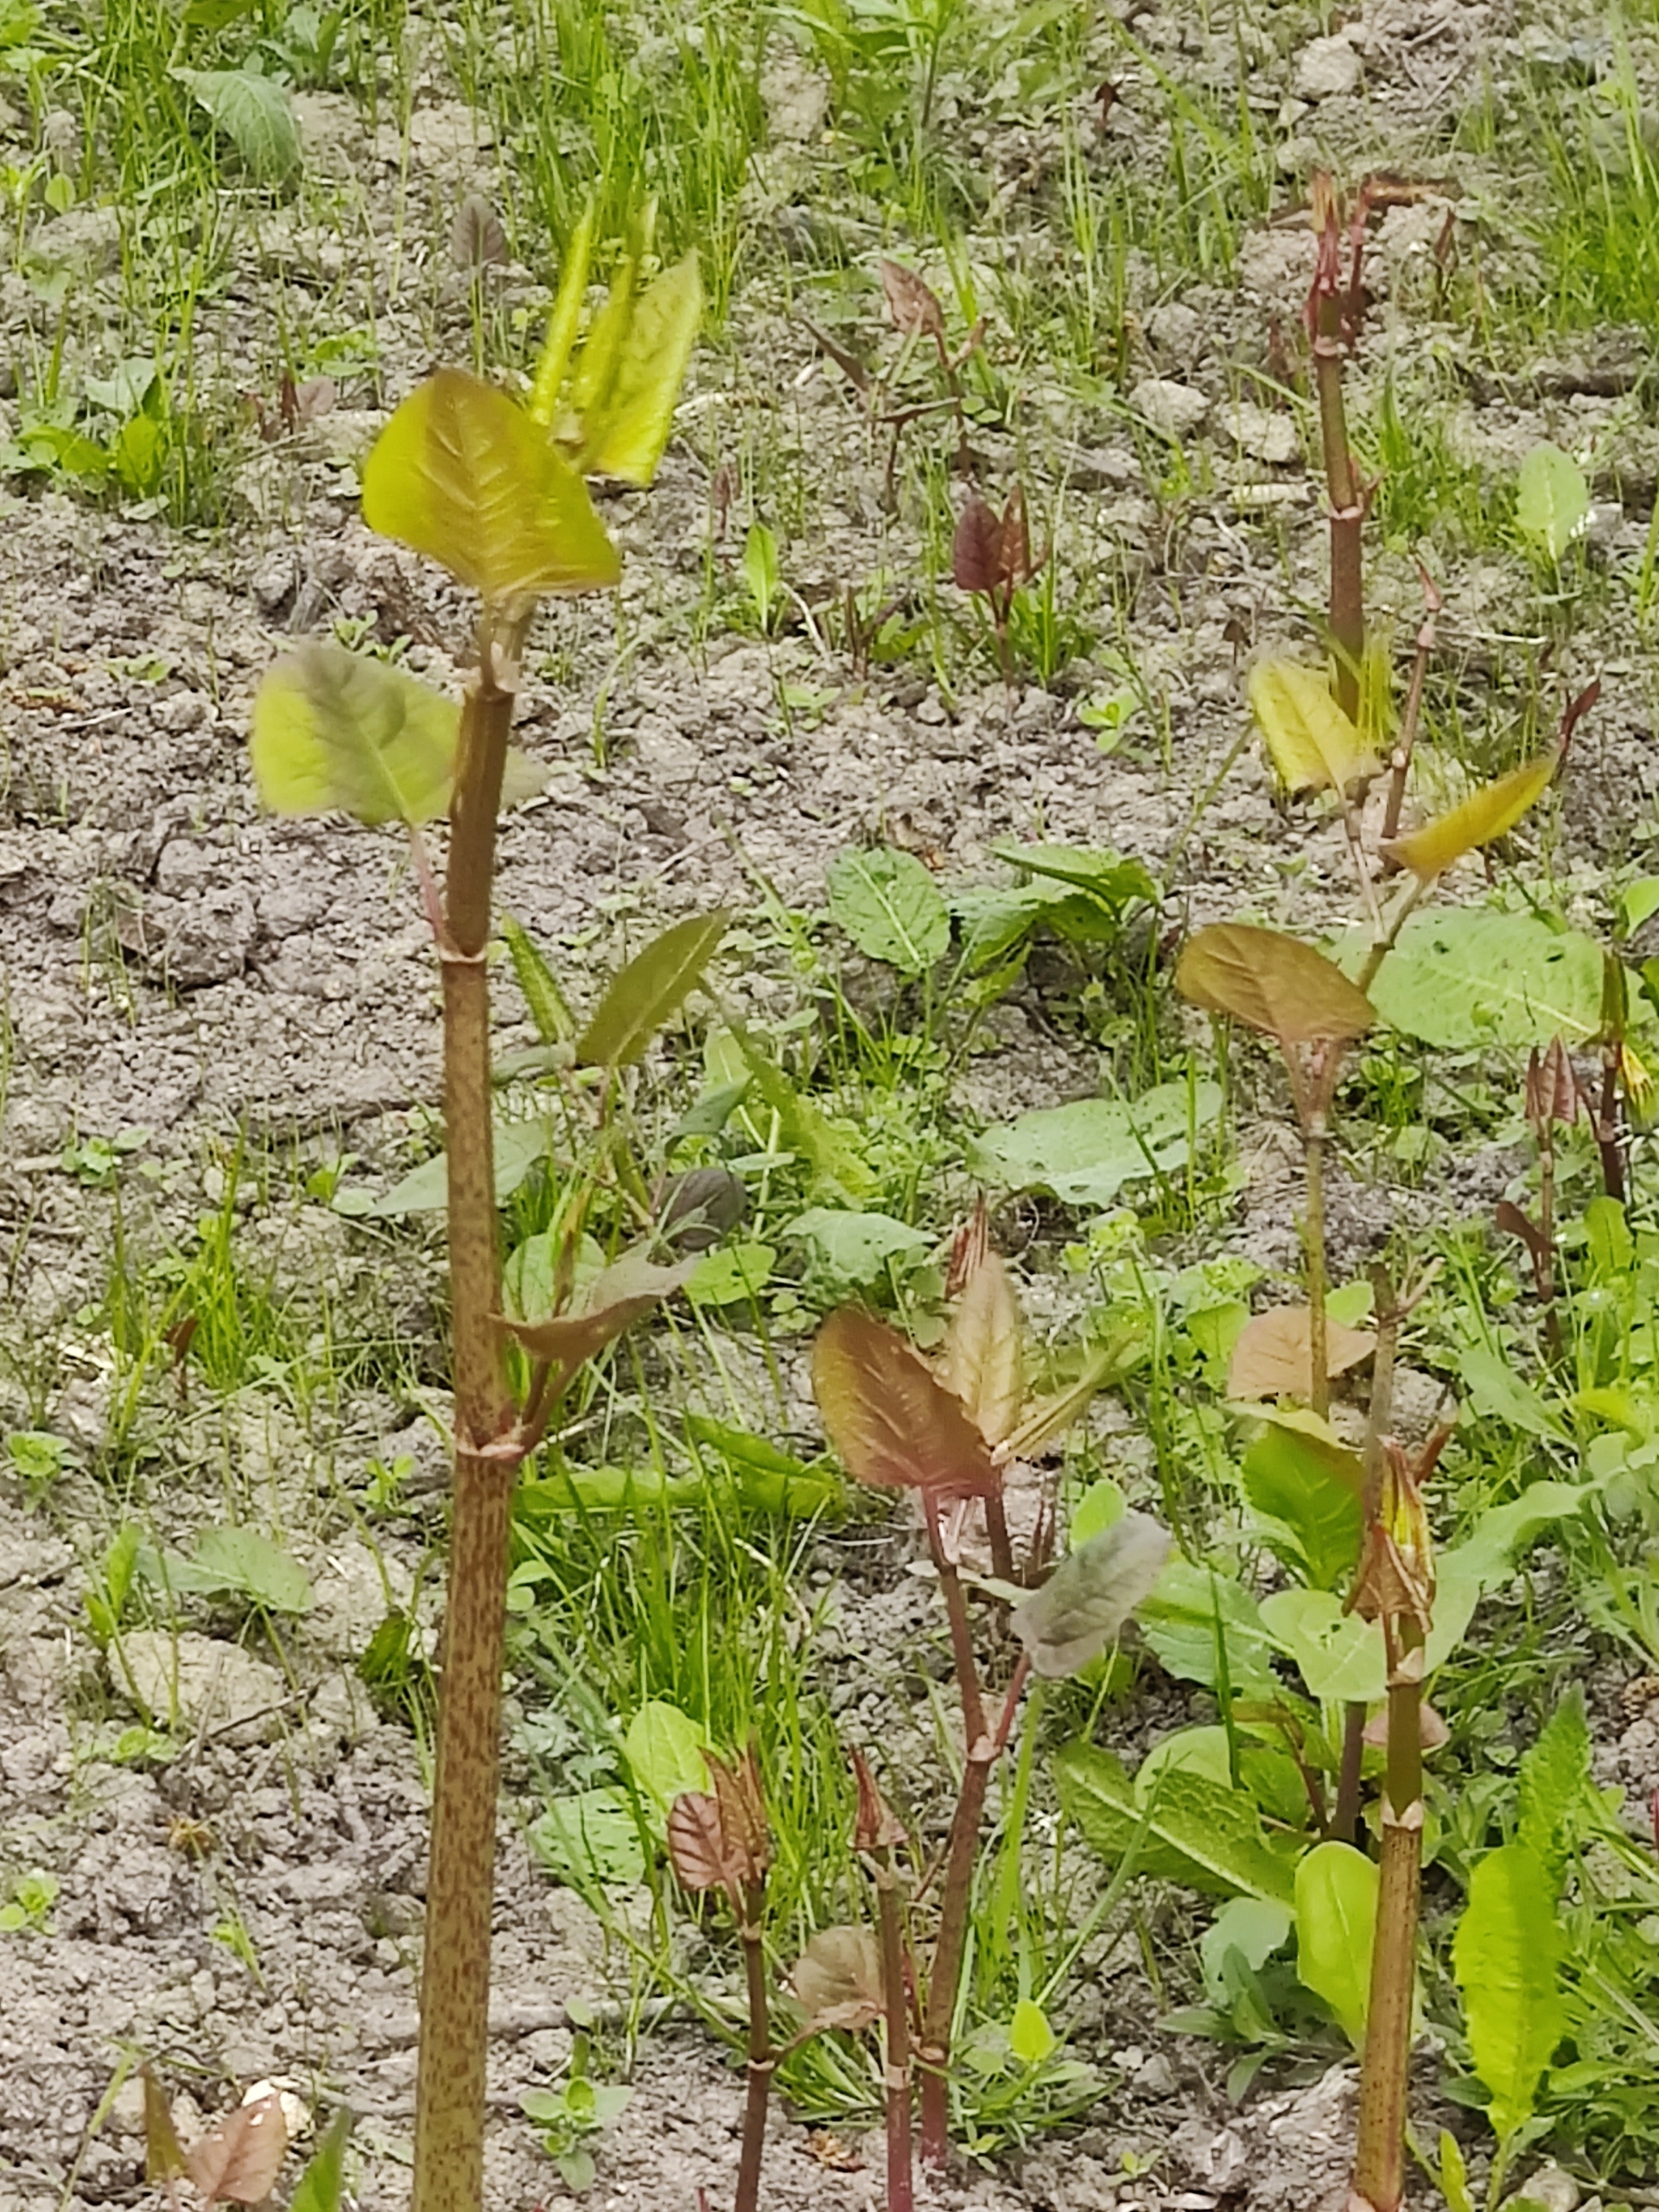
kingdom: Plantae
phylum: Tracheophyta
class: Magnoliopsida
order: Caryophyllales
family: Polygonaceae
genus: Reynoutria
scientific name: Reynoutria japonica
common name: Japan-pileurt
